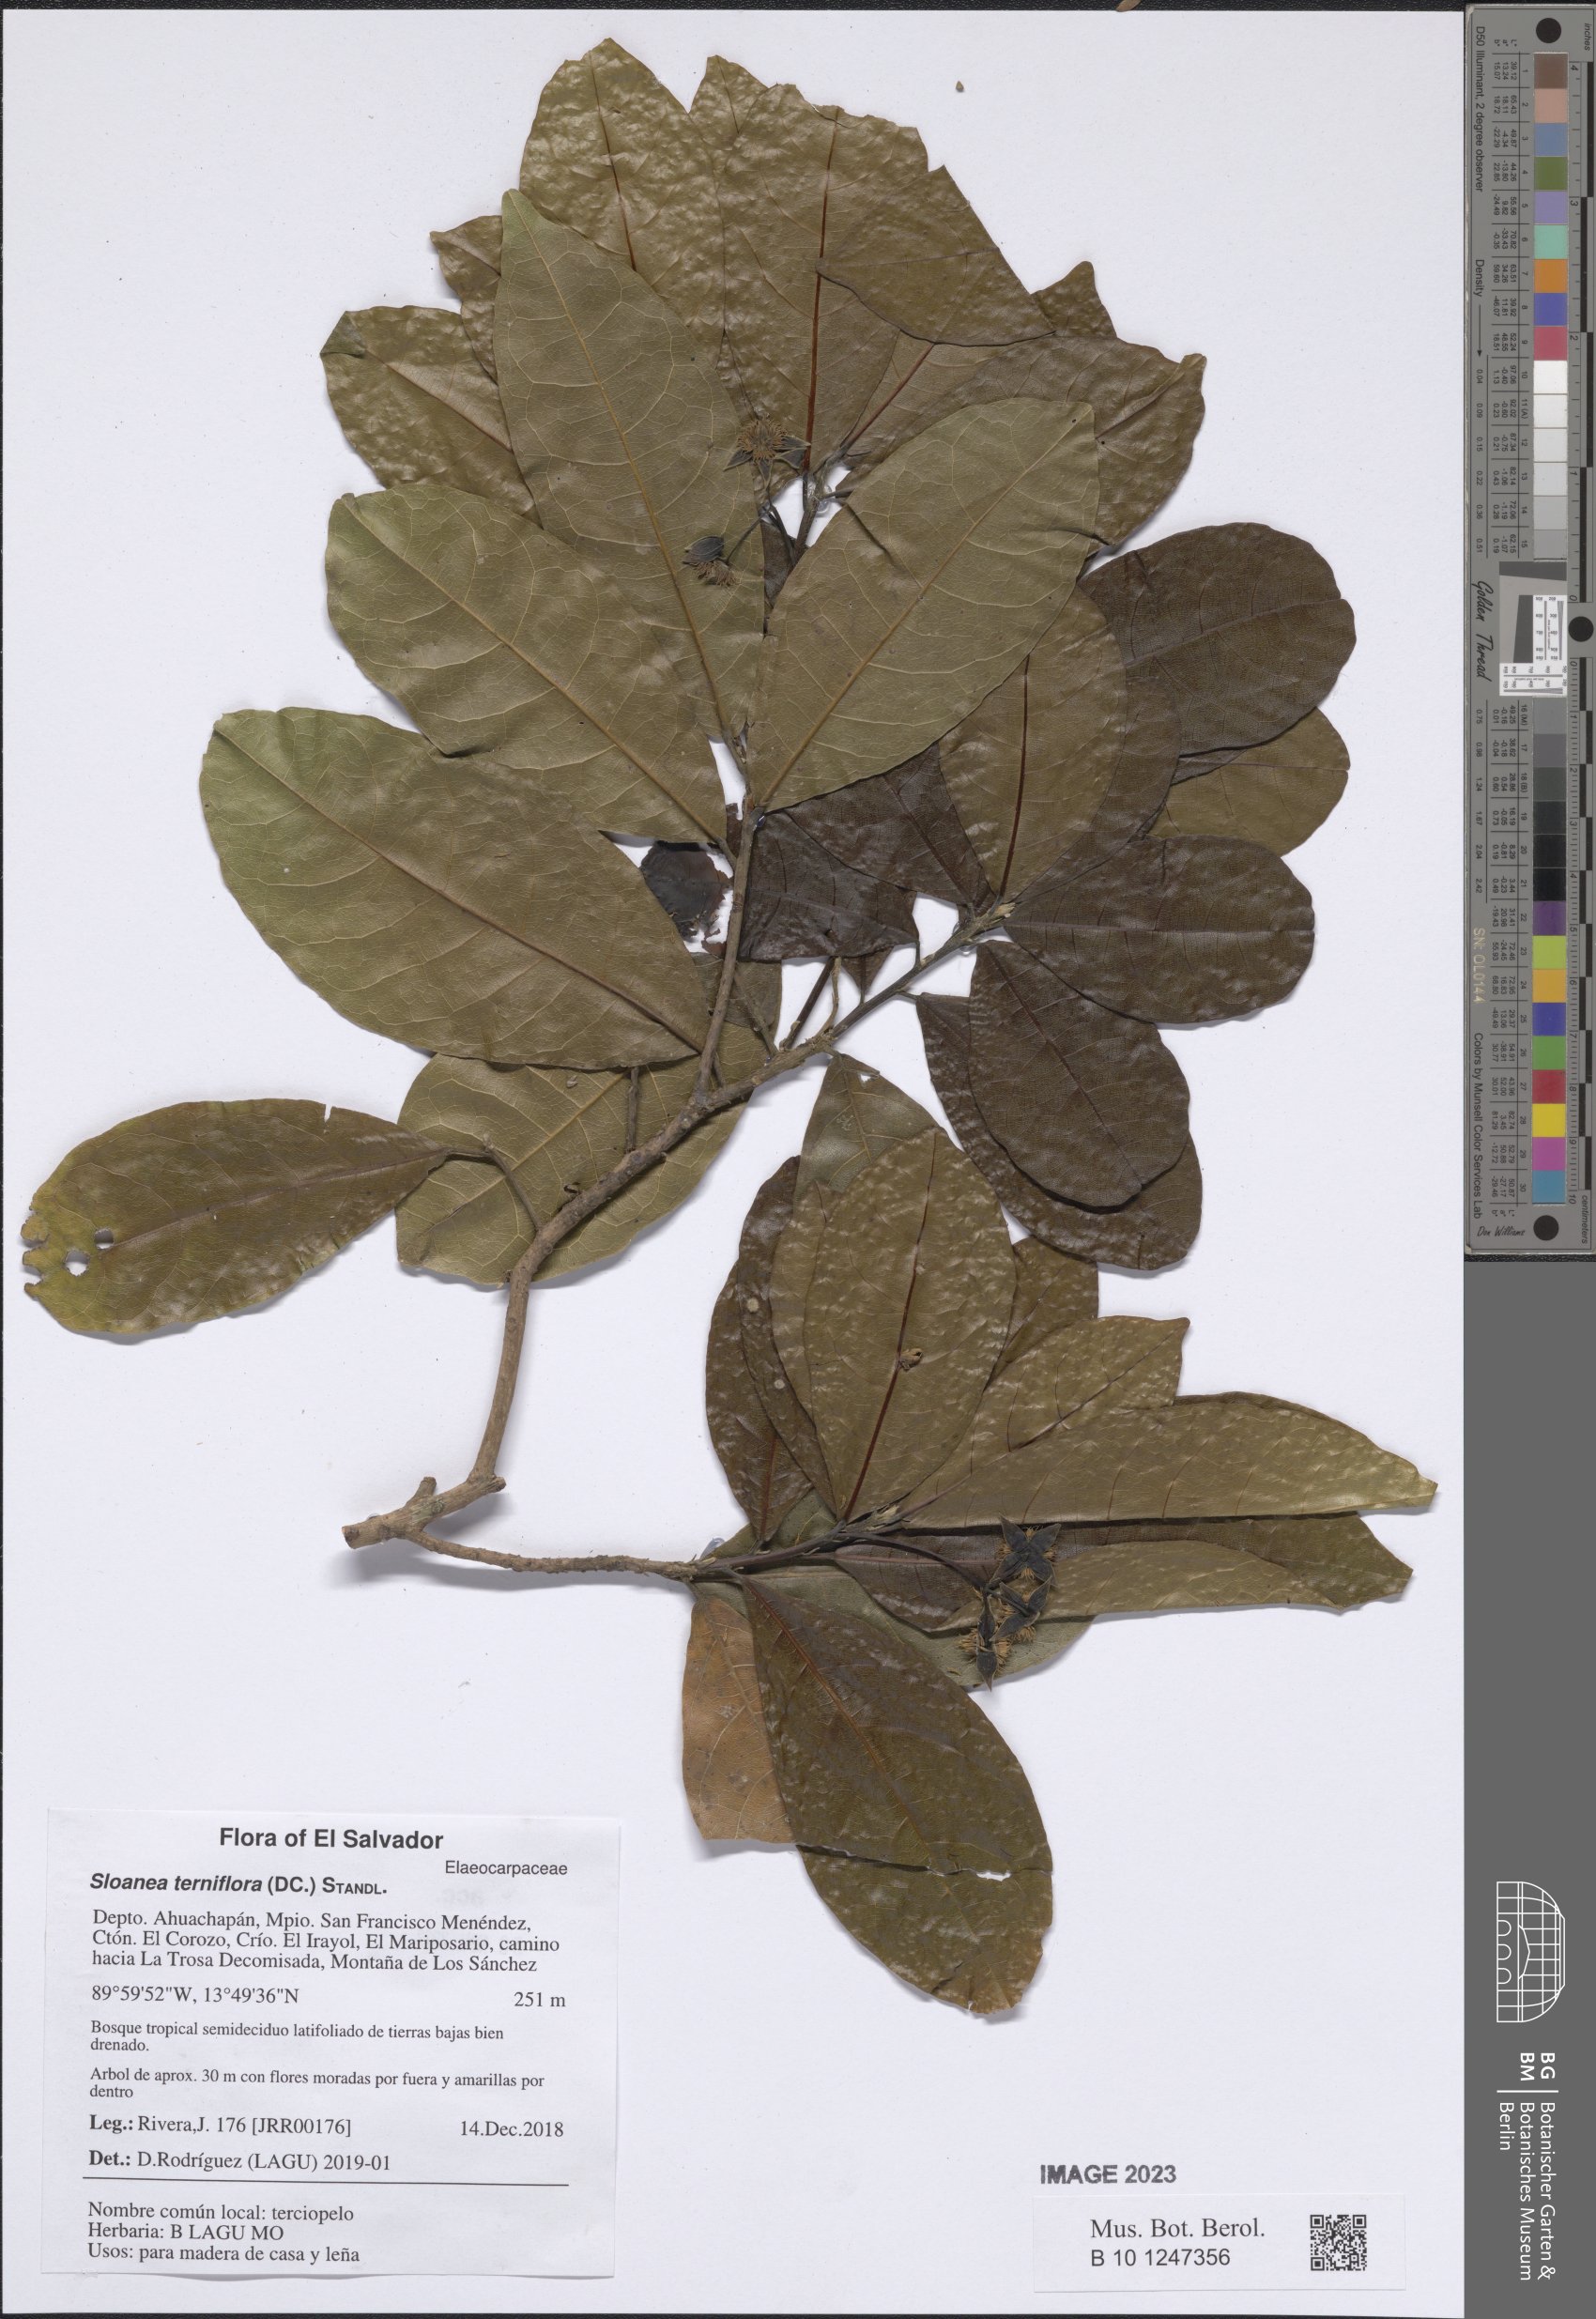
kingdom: Plantae
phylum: Tracheophyta
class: Magnoliopsida
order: Oxalidales
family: Elaeocarpaceae
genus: Sloanea
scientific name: Sloanea terniflora
